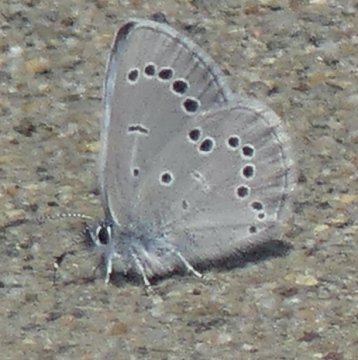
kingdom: Animalia
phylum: Arthropoda
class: Insecta
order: Lepidoptera
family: Lycaenidae
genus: Glaucopsyche
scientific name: Glaucopsyche lygdamus
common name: Silvery Blue
